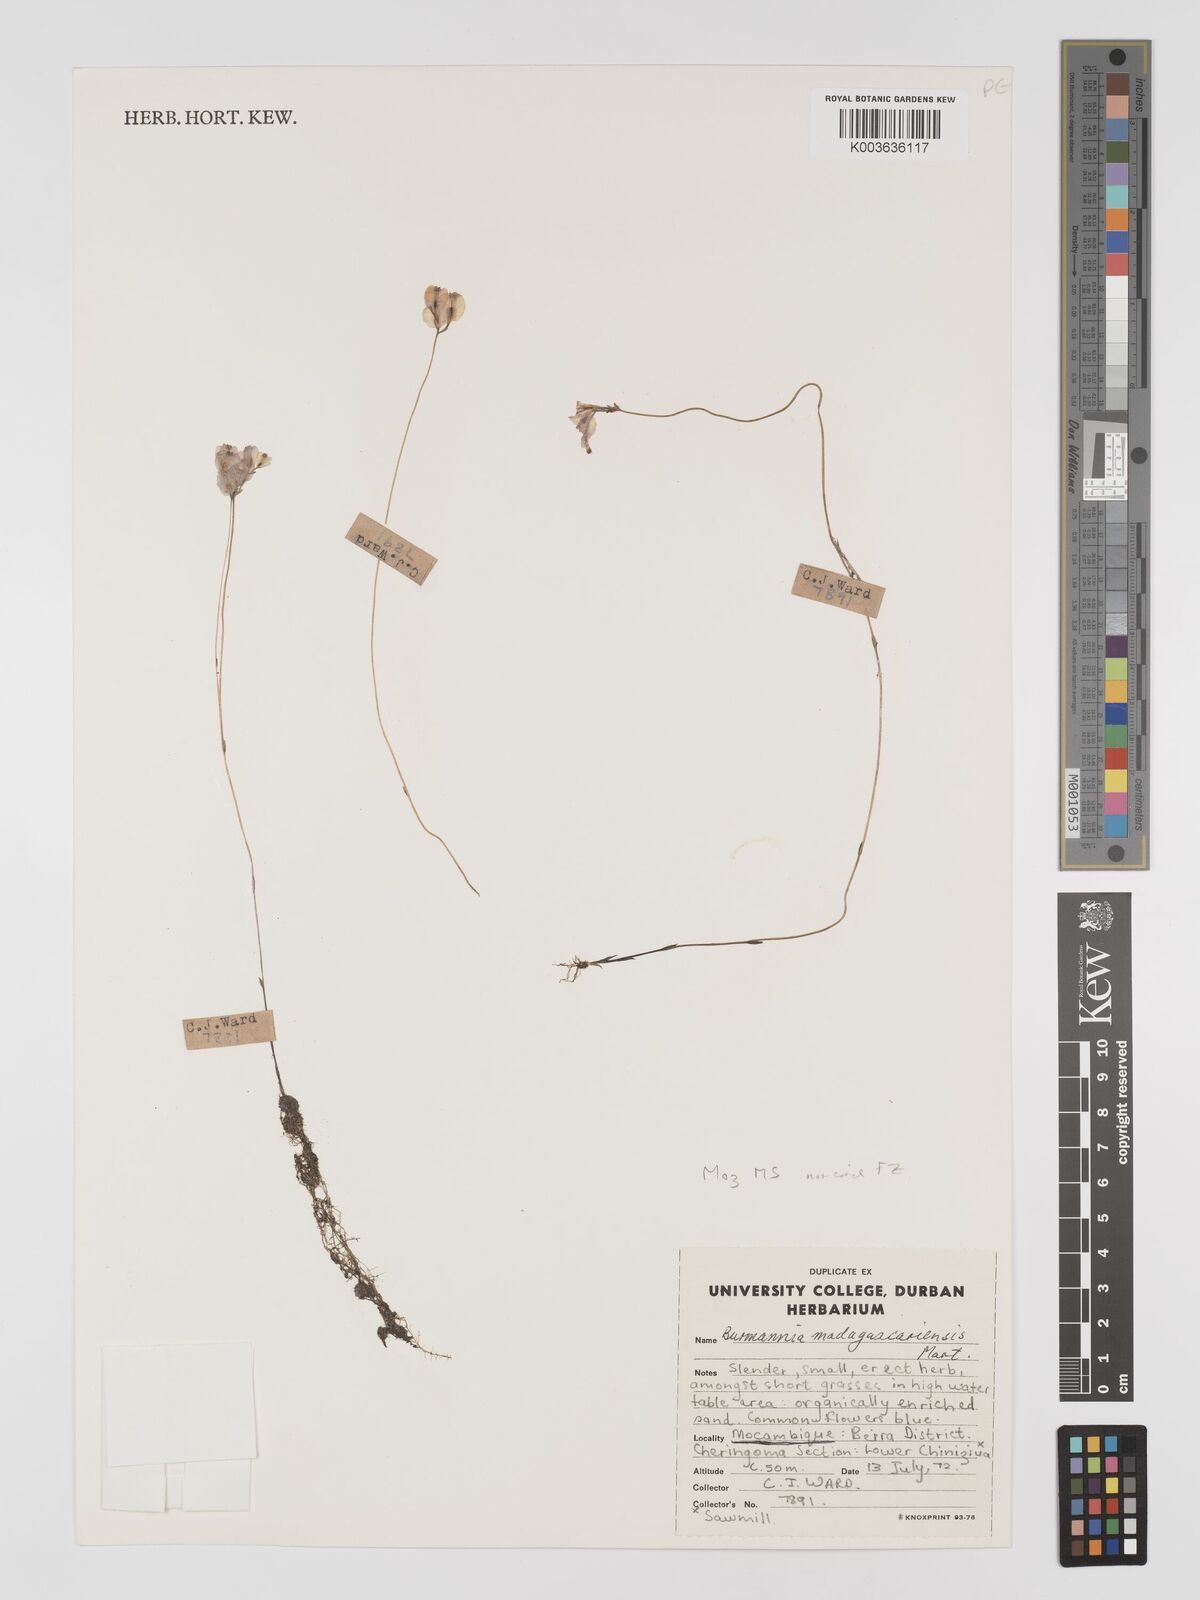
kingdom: Plantae
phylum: Tracheophyta
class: Liliopsida
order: Dioscoreales
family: Burmanniaceae
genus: Burmannia
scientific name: Burmannia madagascariensis
